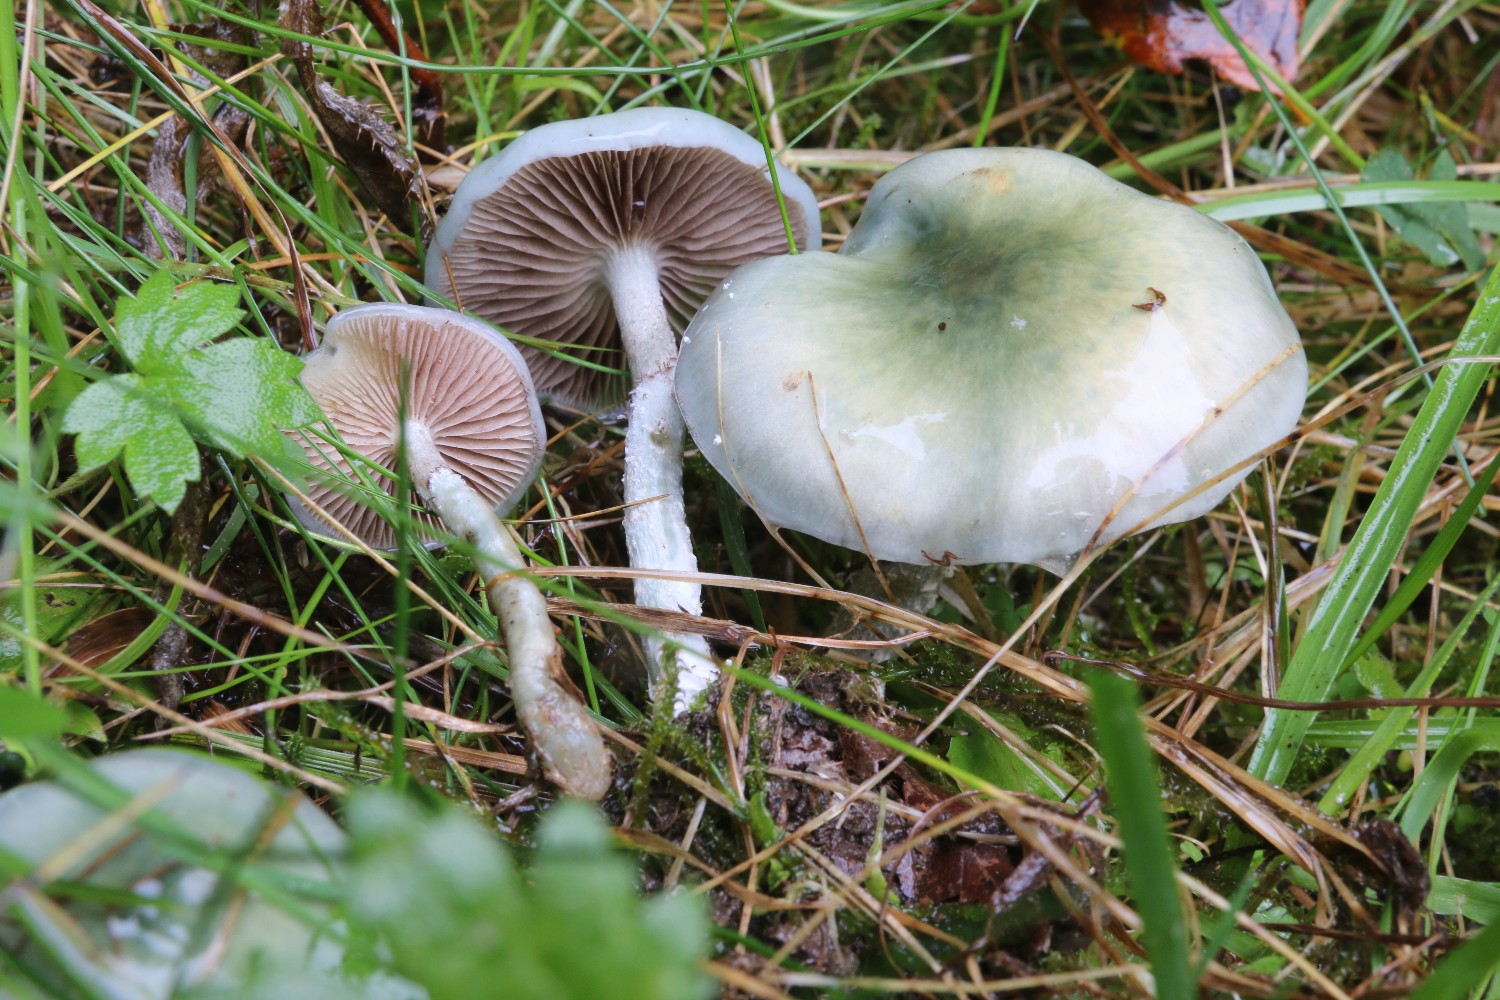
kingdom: Fungi
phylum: Basidiomycota
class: Agaricomycetes
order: Agaricales
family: Strophariaceae
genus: Stropharia
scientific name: Stropharia cyanea
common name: blågrøn bredblad
